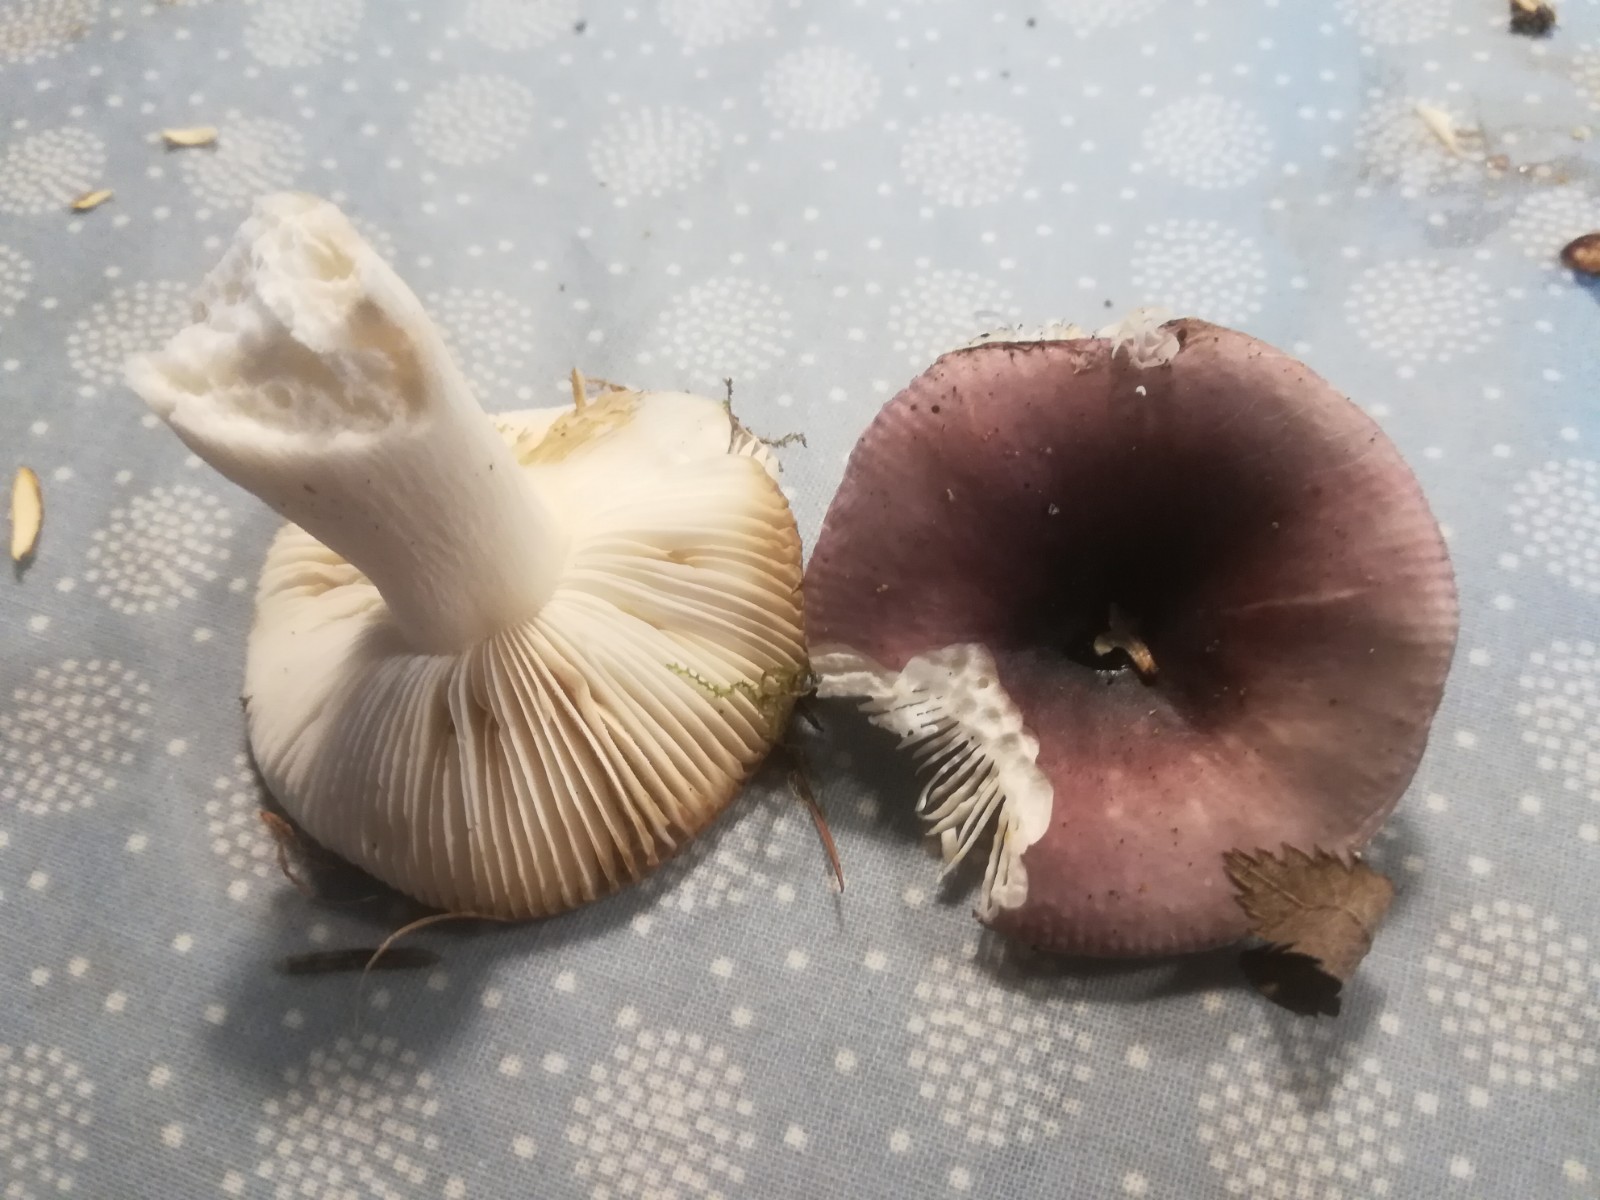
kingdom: Fungi
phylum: Basidiomycota
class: Agaricomycetes
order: Russulales
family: Russulaceae
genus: Russula
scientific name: Russula
